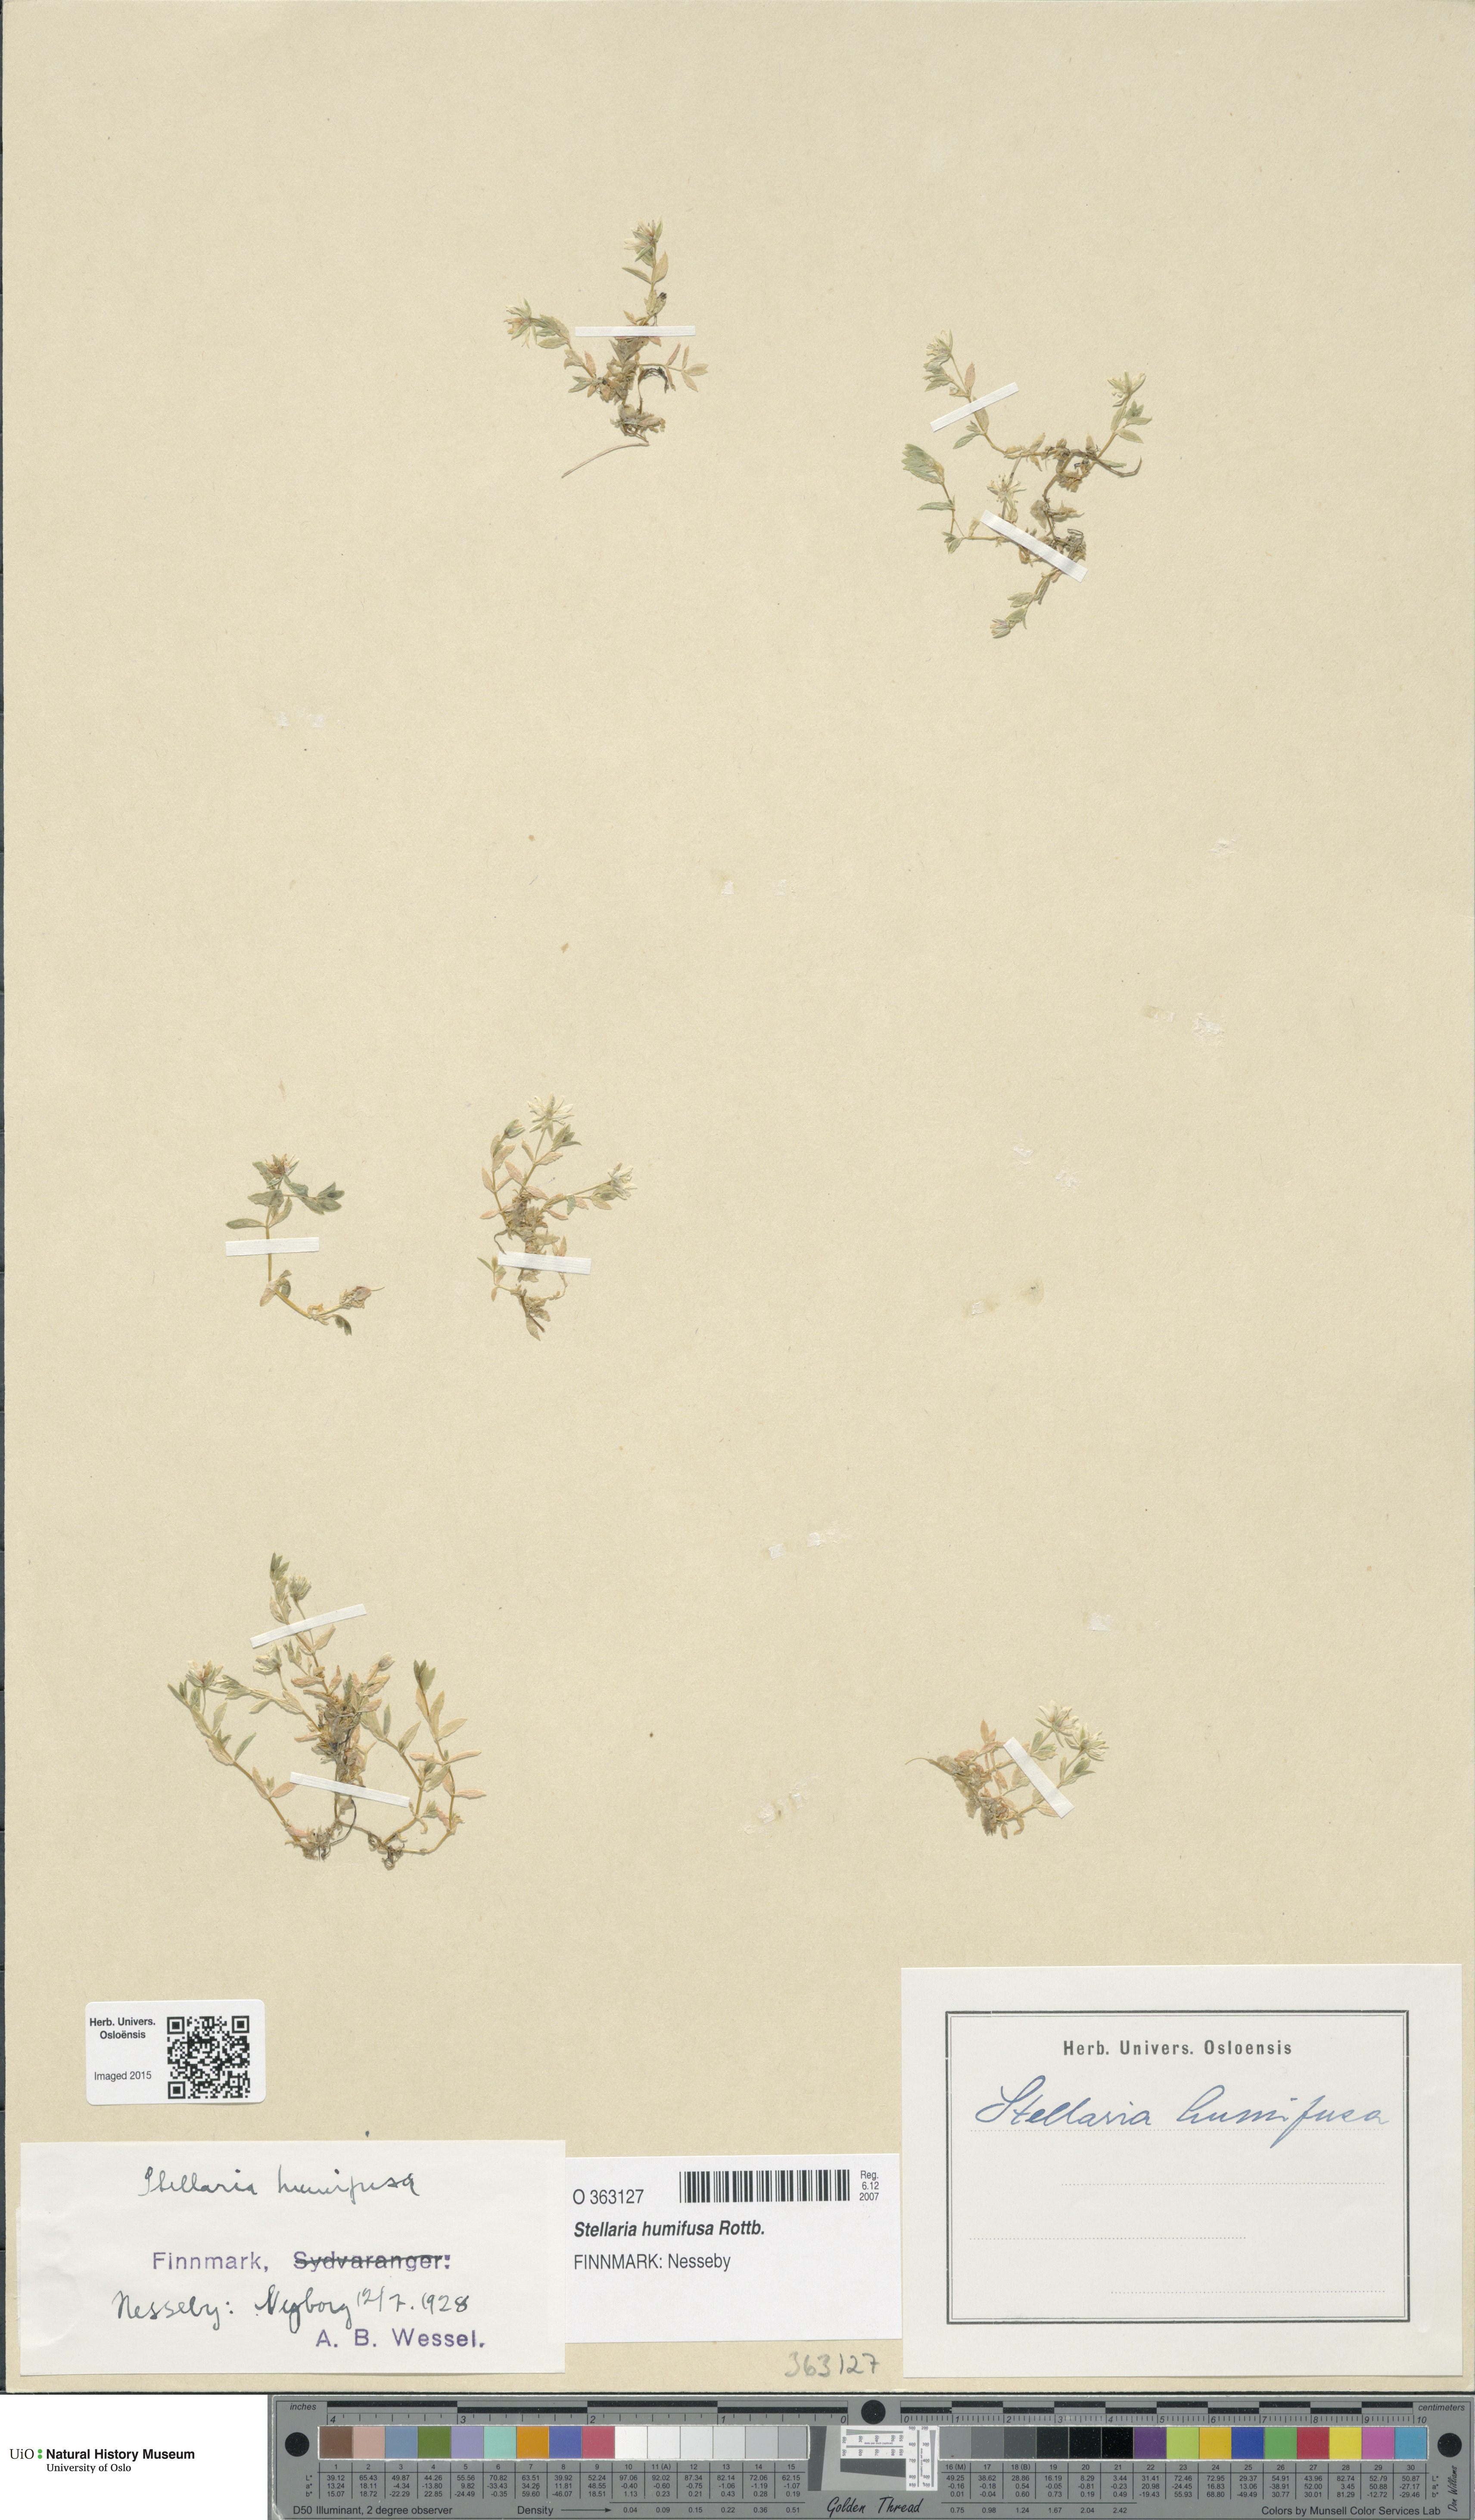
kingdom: Plantae
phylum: Tracheophyta
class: Magnoliopsida
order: Caryophyllales
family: Caryophyllaceae
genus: Stellaria
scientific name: Stellaria humifusa
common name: Creeping starwort
